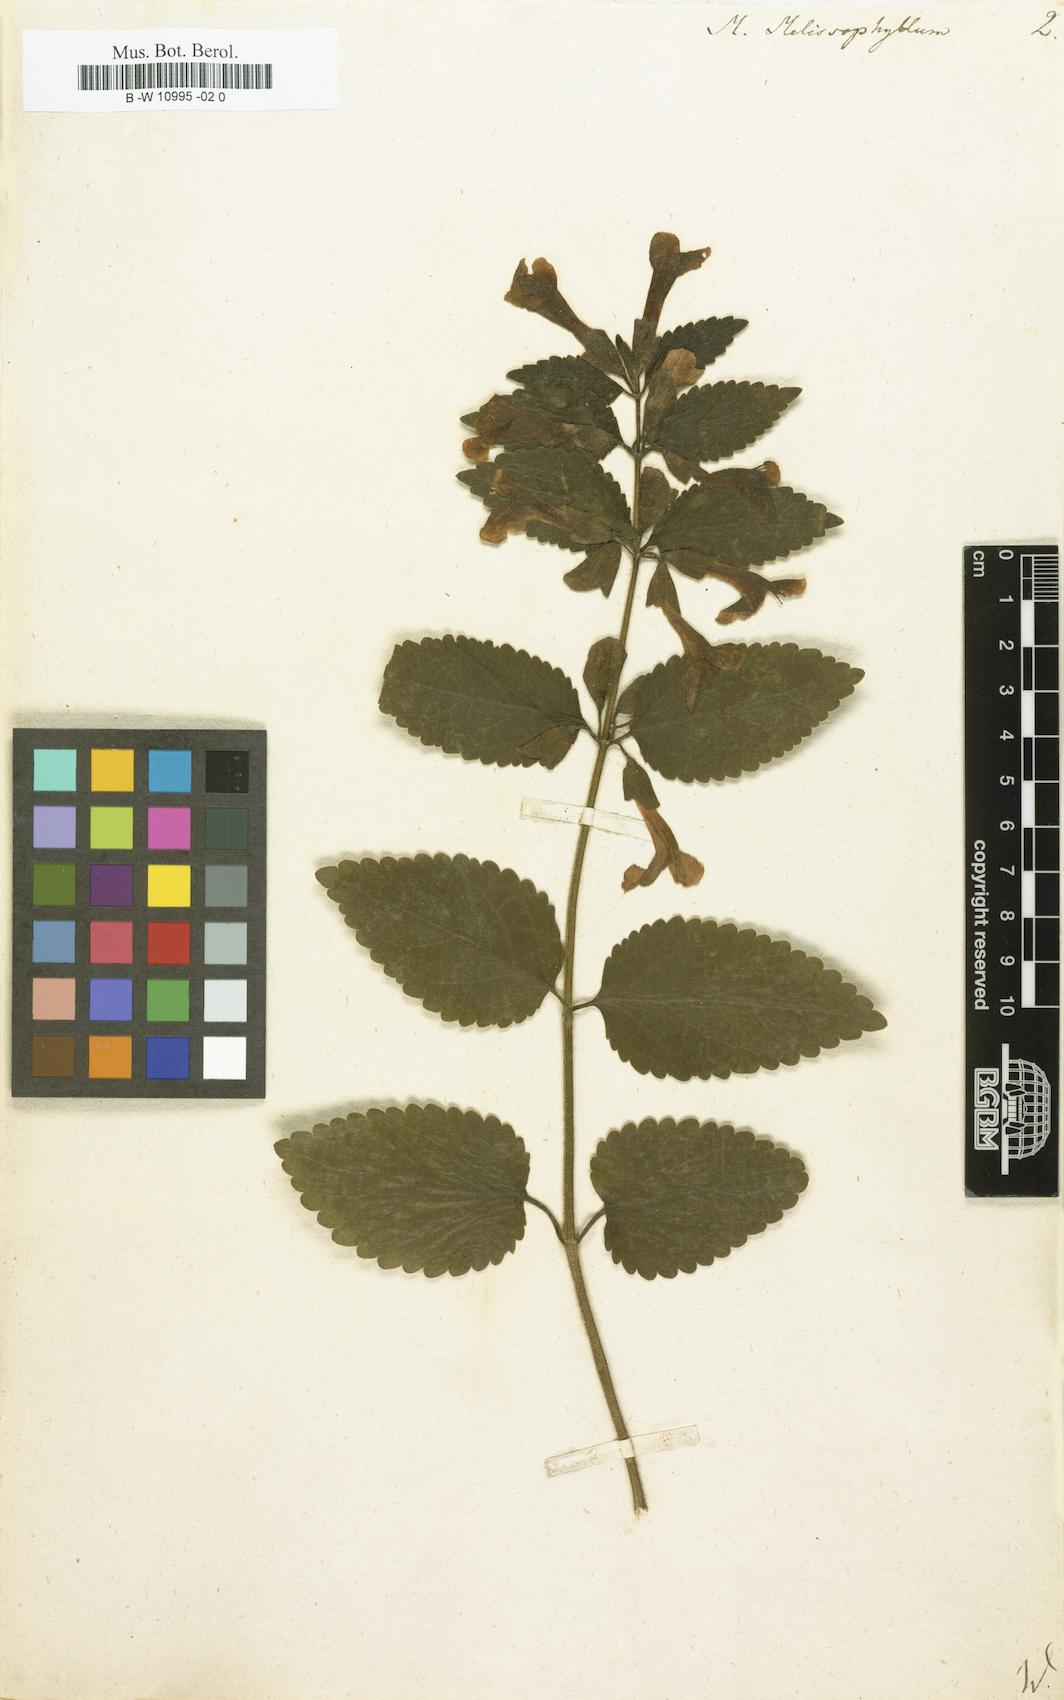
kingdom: Plantae
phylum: Tracheophyta
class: Magnoliopsida
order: Lamiales
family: Lamiaceae
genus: Melittis
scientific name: Melittis melissophyllum
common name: Bastard balm
